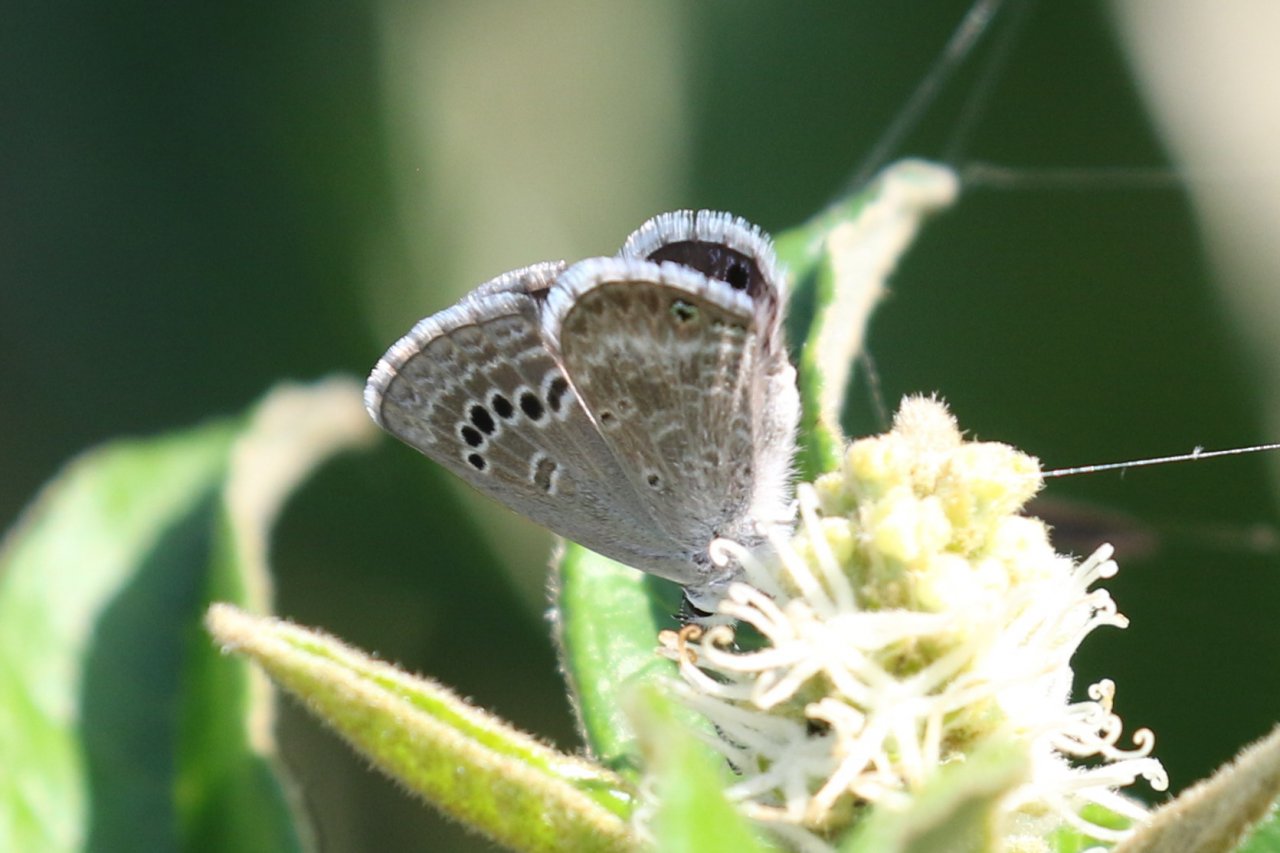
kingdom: Animalia
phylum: Arthropoda
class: Insecta
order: Lepidoptera
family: Lycaenidae
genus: Echinargus
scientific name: Echinargus isola
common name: Reakirt's Blue
